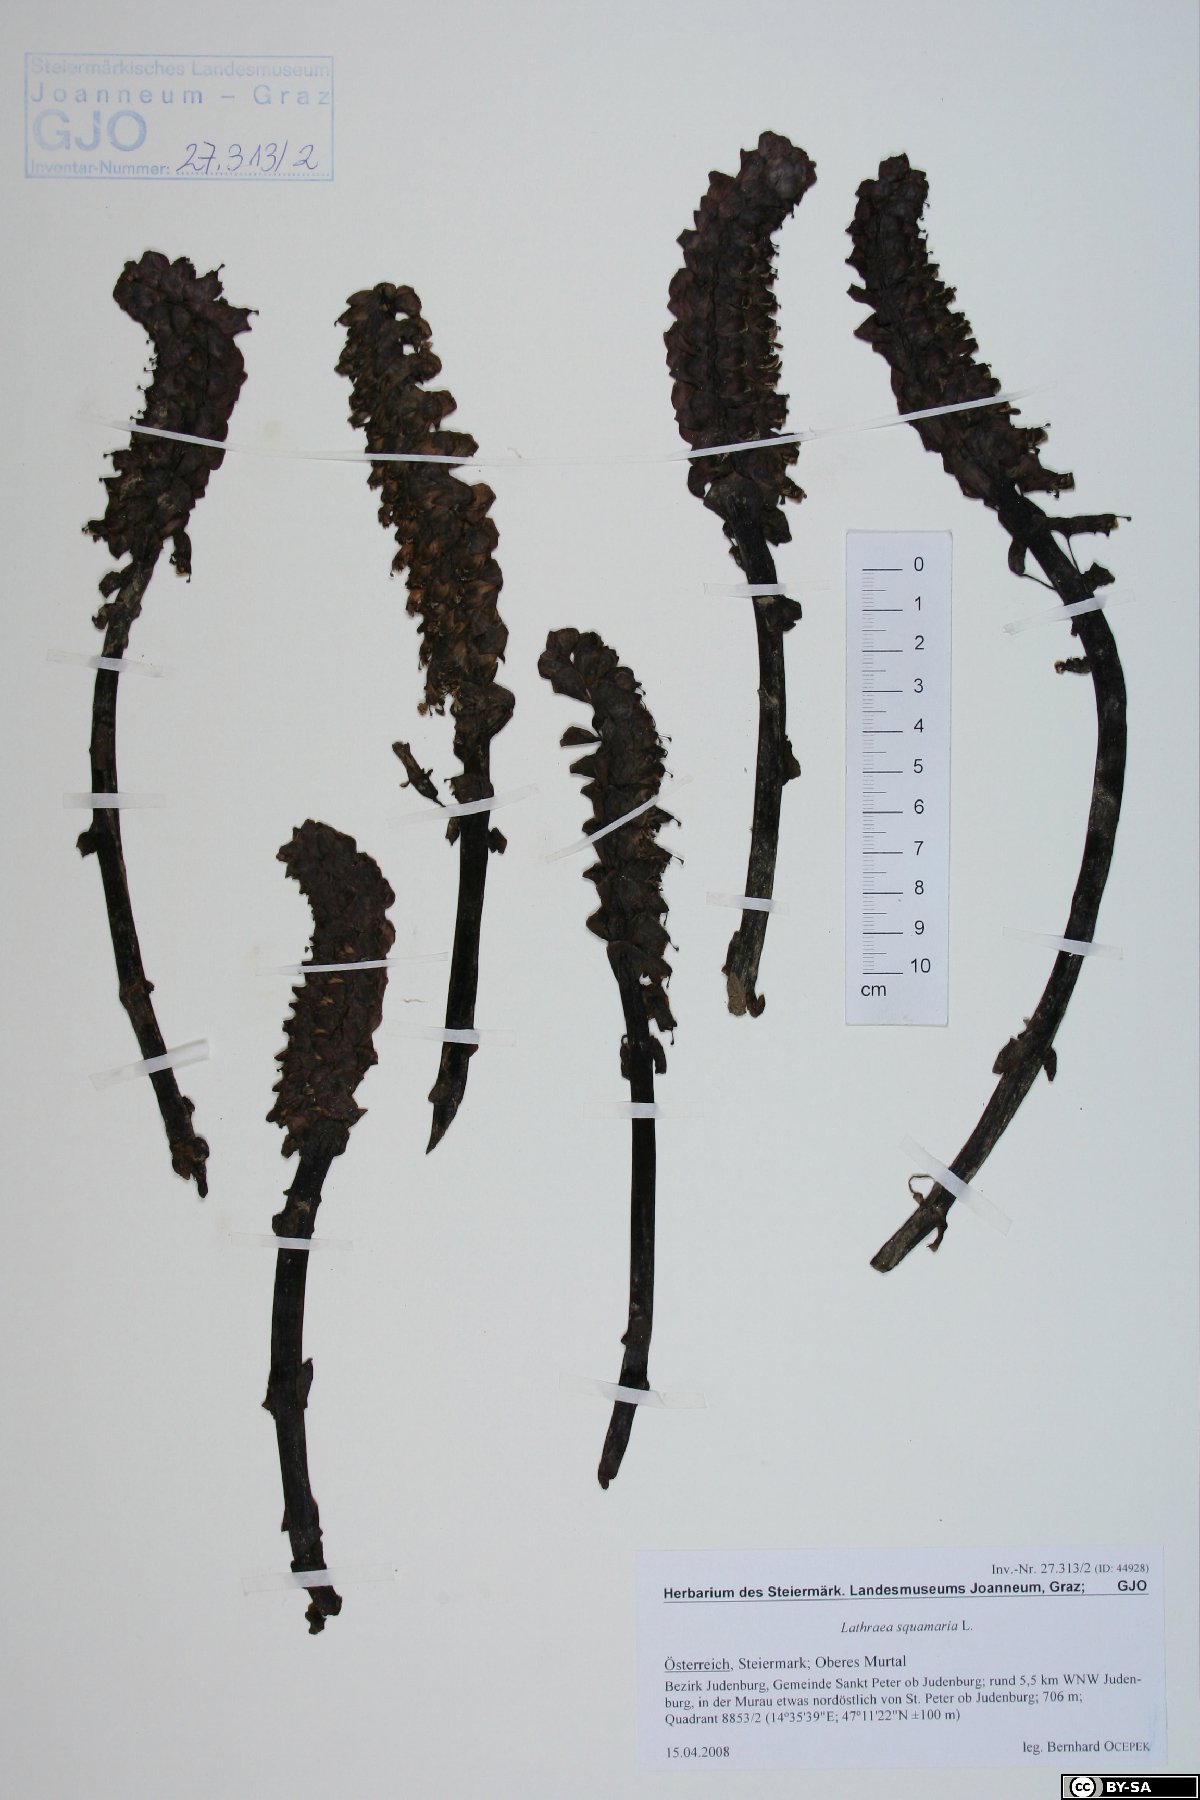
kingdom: Plantae
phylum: Tracheophyta
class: Magnoliopsida
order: Lamiales
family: Orobanchaceae
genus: Lathraea
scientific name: Lathraea squamaria
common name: Toothwort
